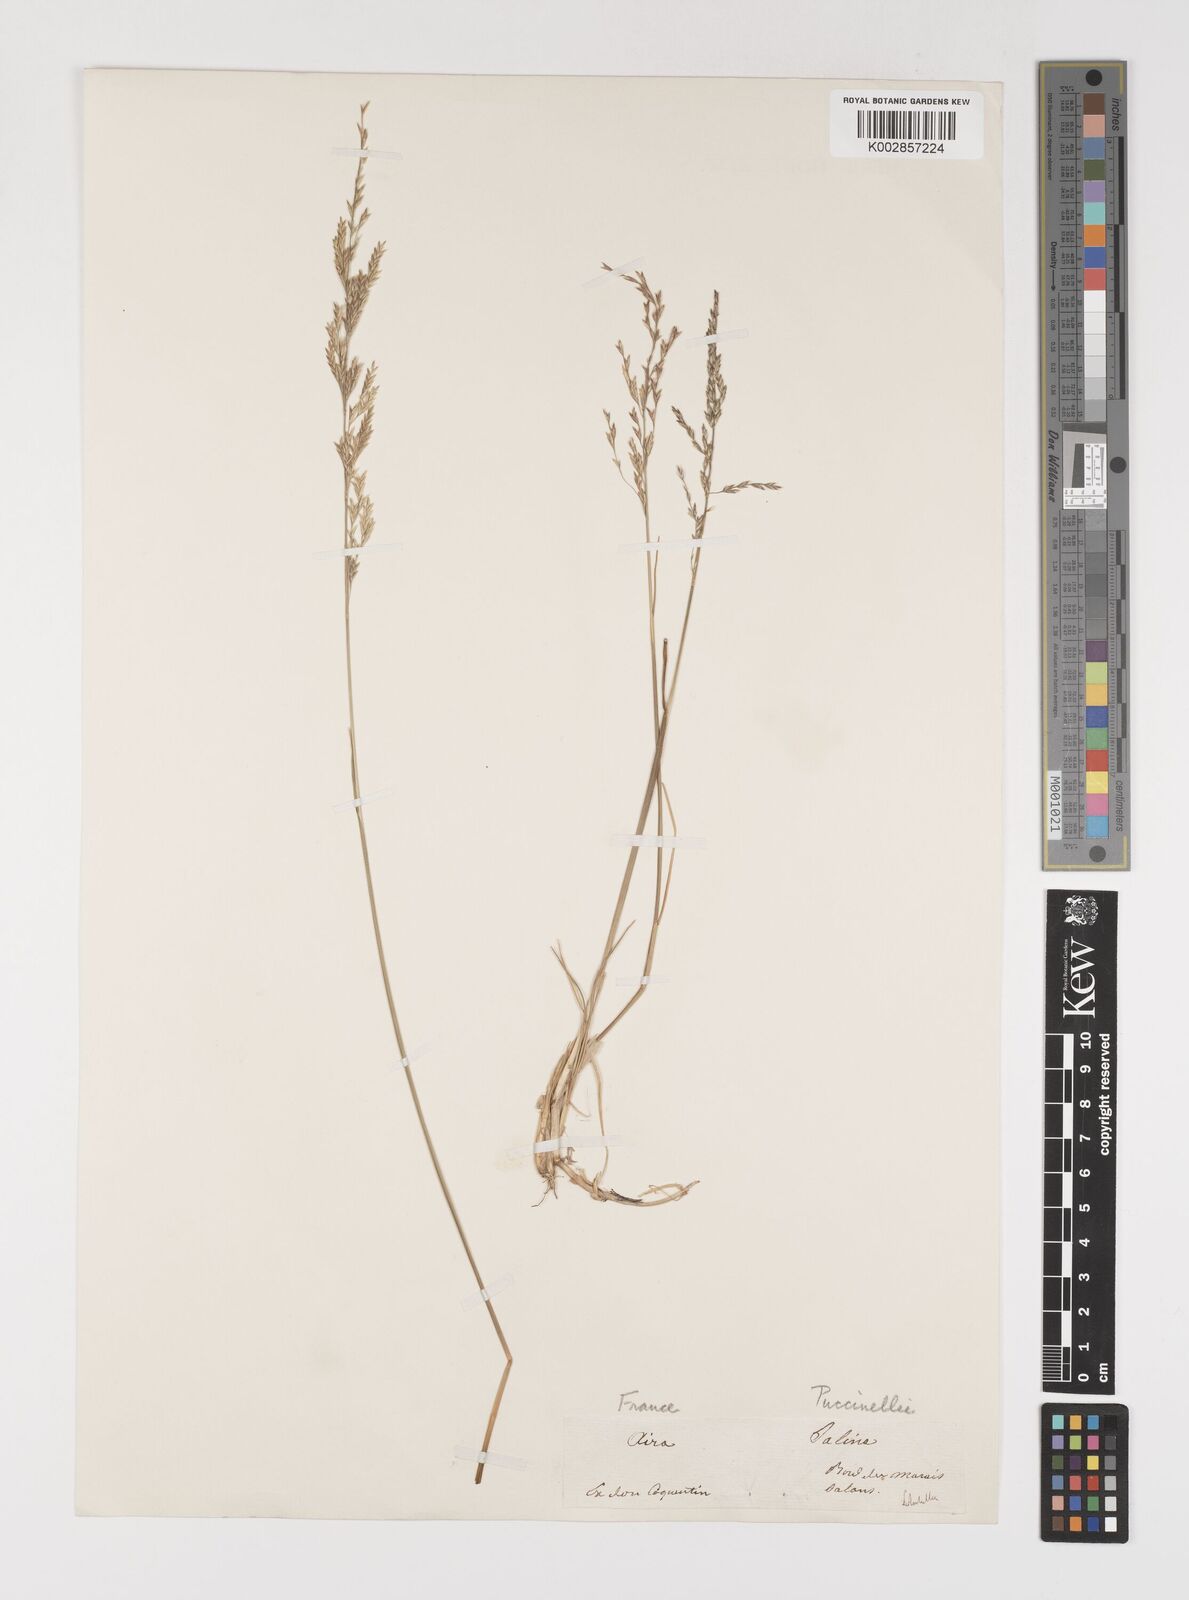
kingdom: Plantae
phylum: Tracheophyta
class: Liliopsida
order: Poales
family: Poaceae
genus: Puccinellia
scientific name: Puccinellia
